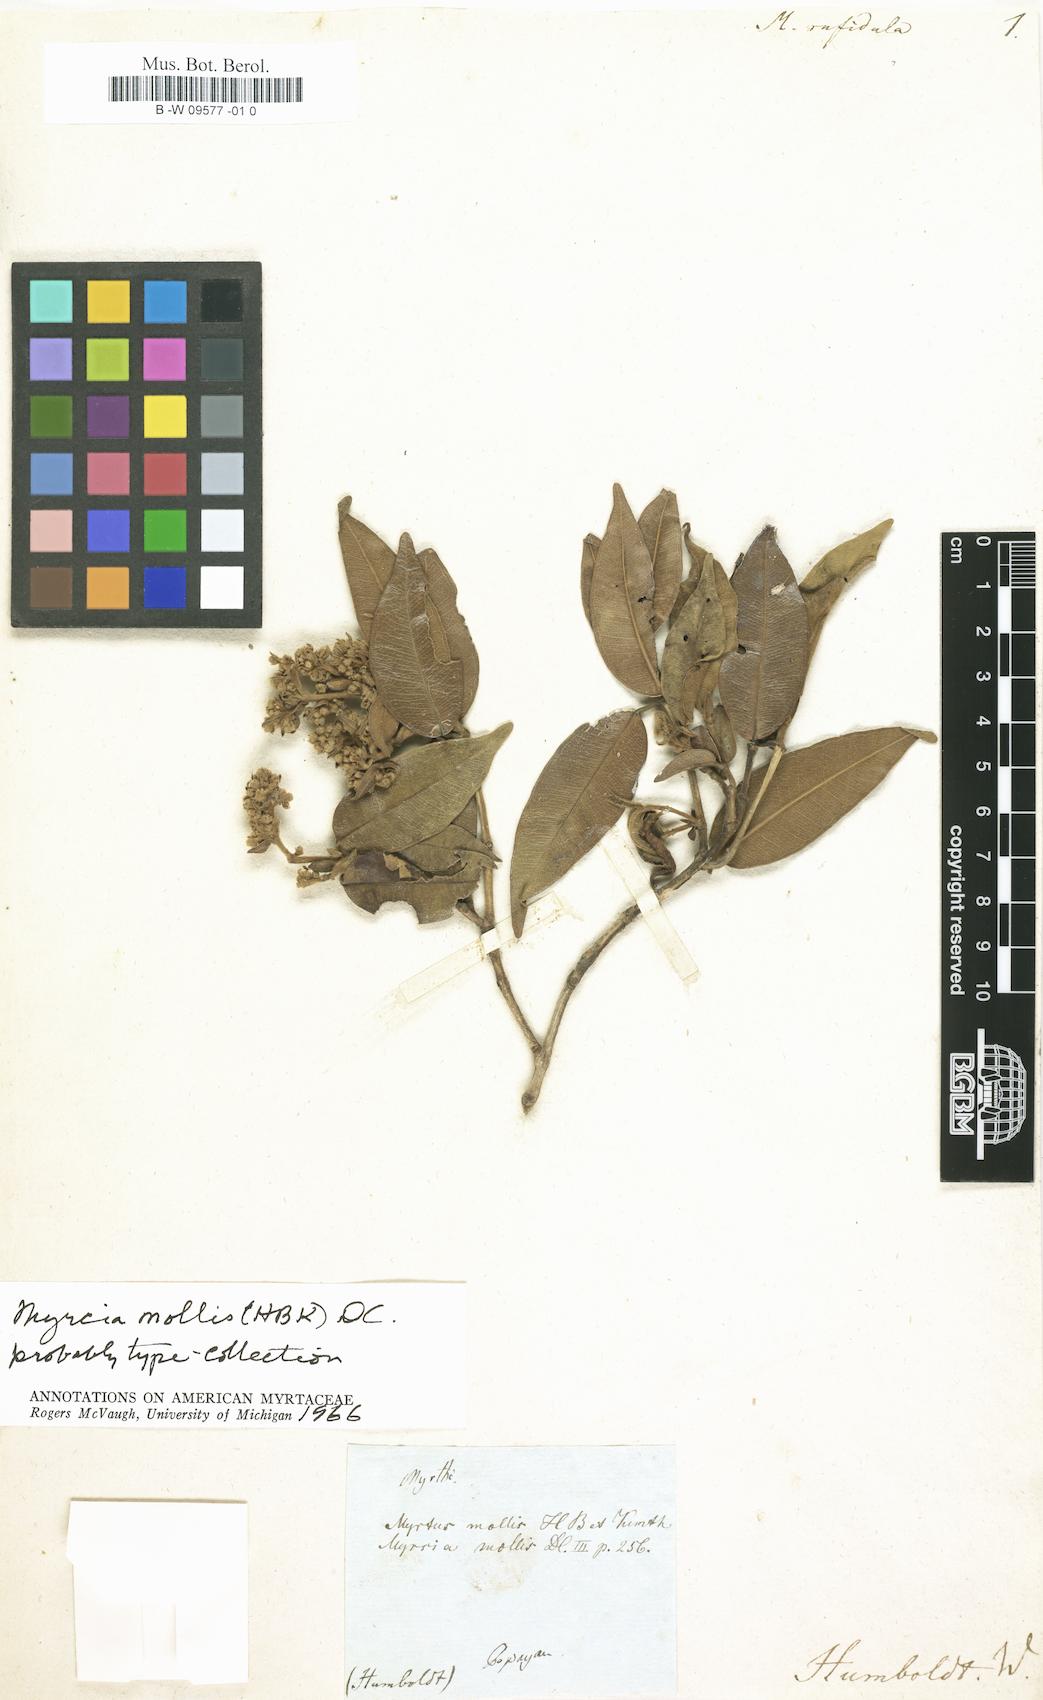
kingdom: Plantae
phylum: Tracheophyta
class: Magnoliopsida
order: Myrtales
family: Myrtaceae
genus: Myrtus
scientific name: Myrtus rufidula
